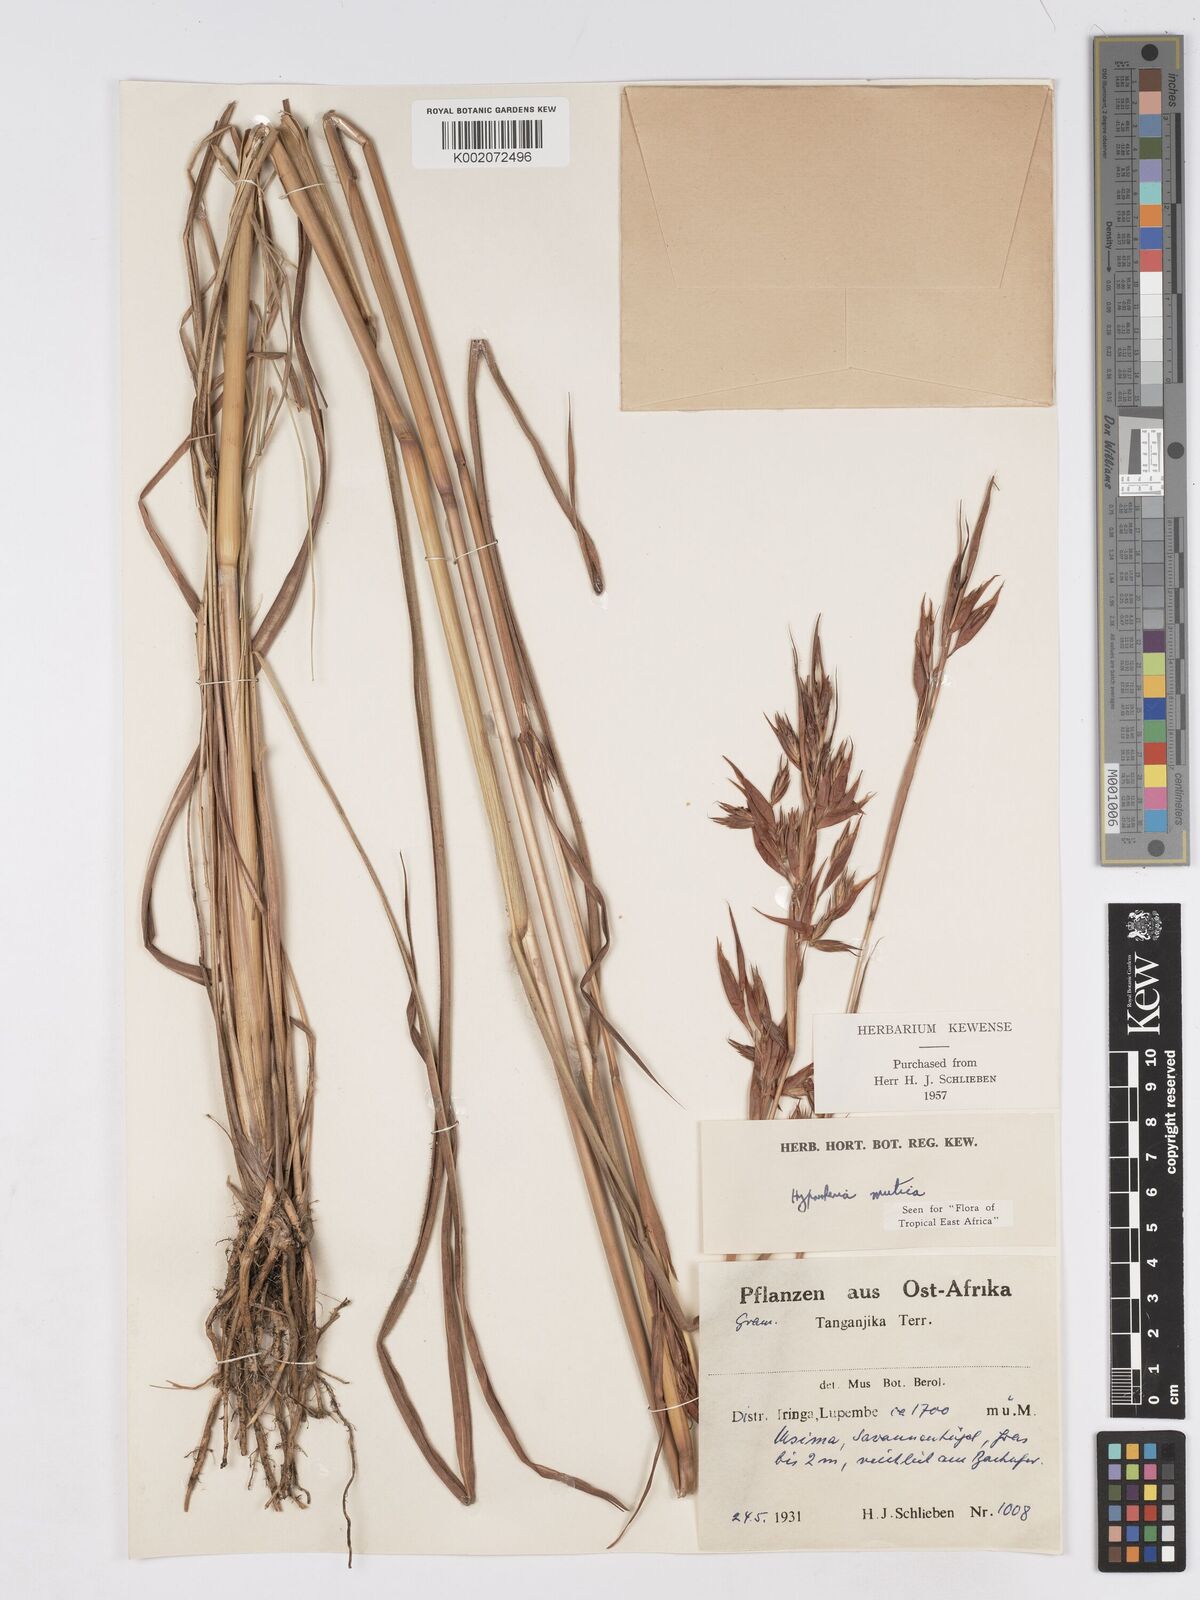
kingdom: Plantae
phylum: Tracheophyta
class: Liliopsida
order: Poales
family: Poaceae
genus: Hyparrhenia
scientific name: Hyparrhenia diplandra
